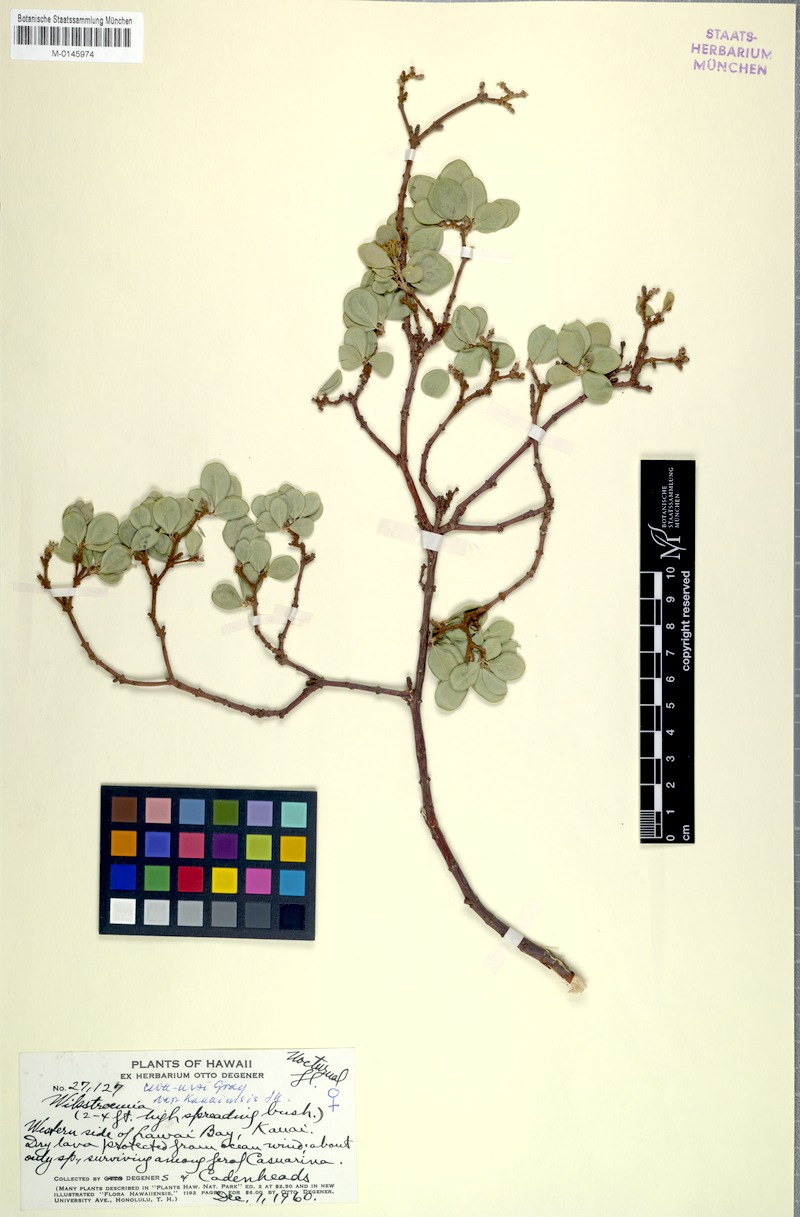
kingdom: Plantae
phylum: Tracheophyta
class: Magnoliopsida
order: Malvales
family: Thymelaeaceae
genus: Wikstroemia
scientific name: Wikstroemia uva-ursi
